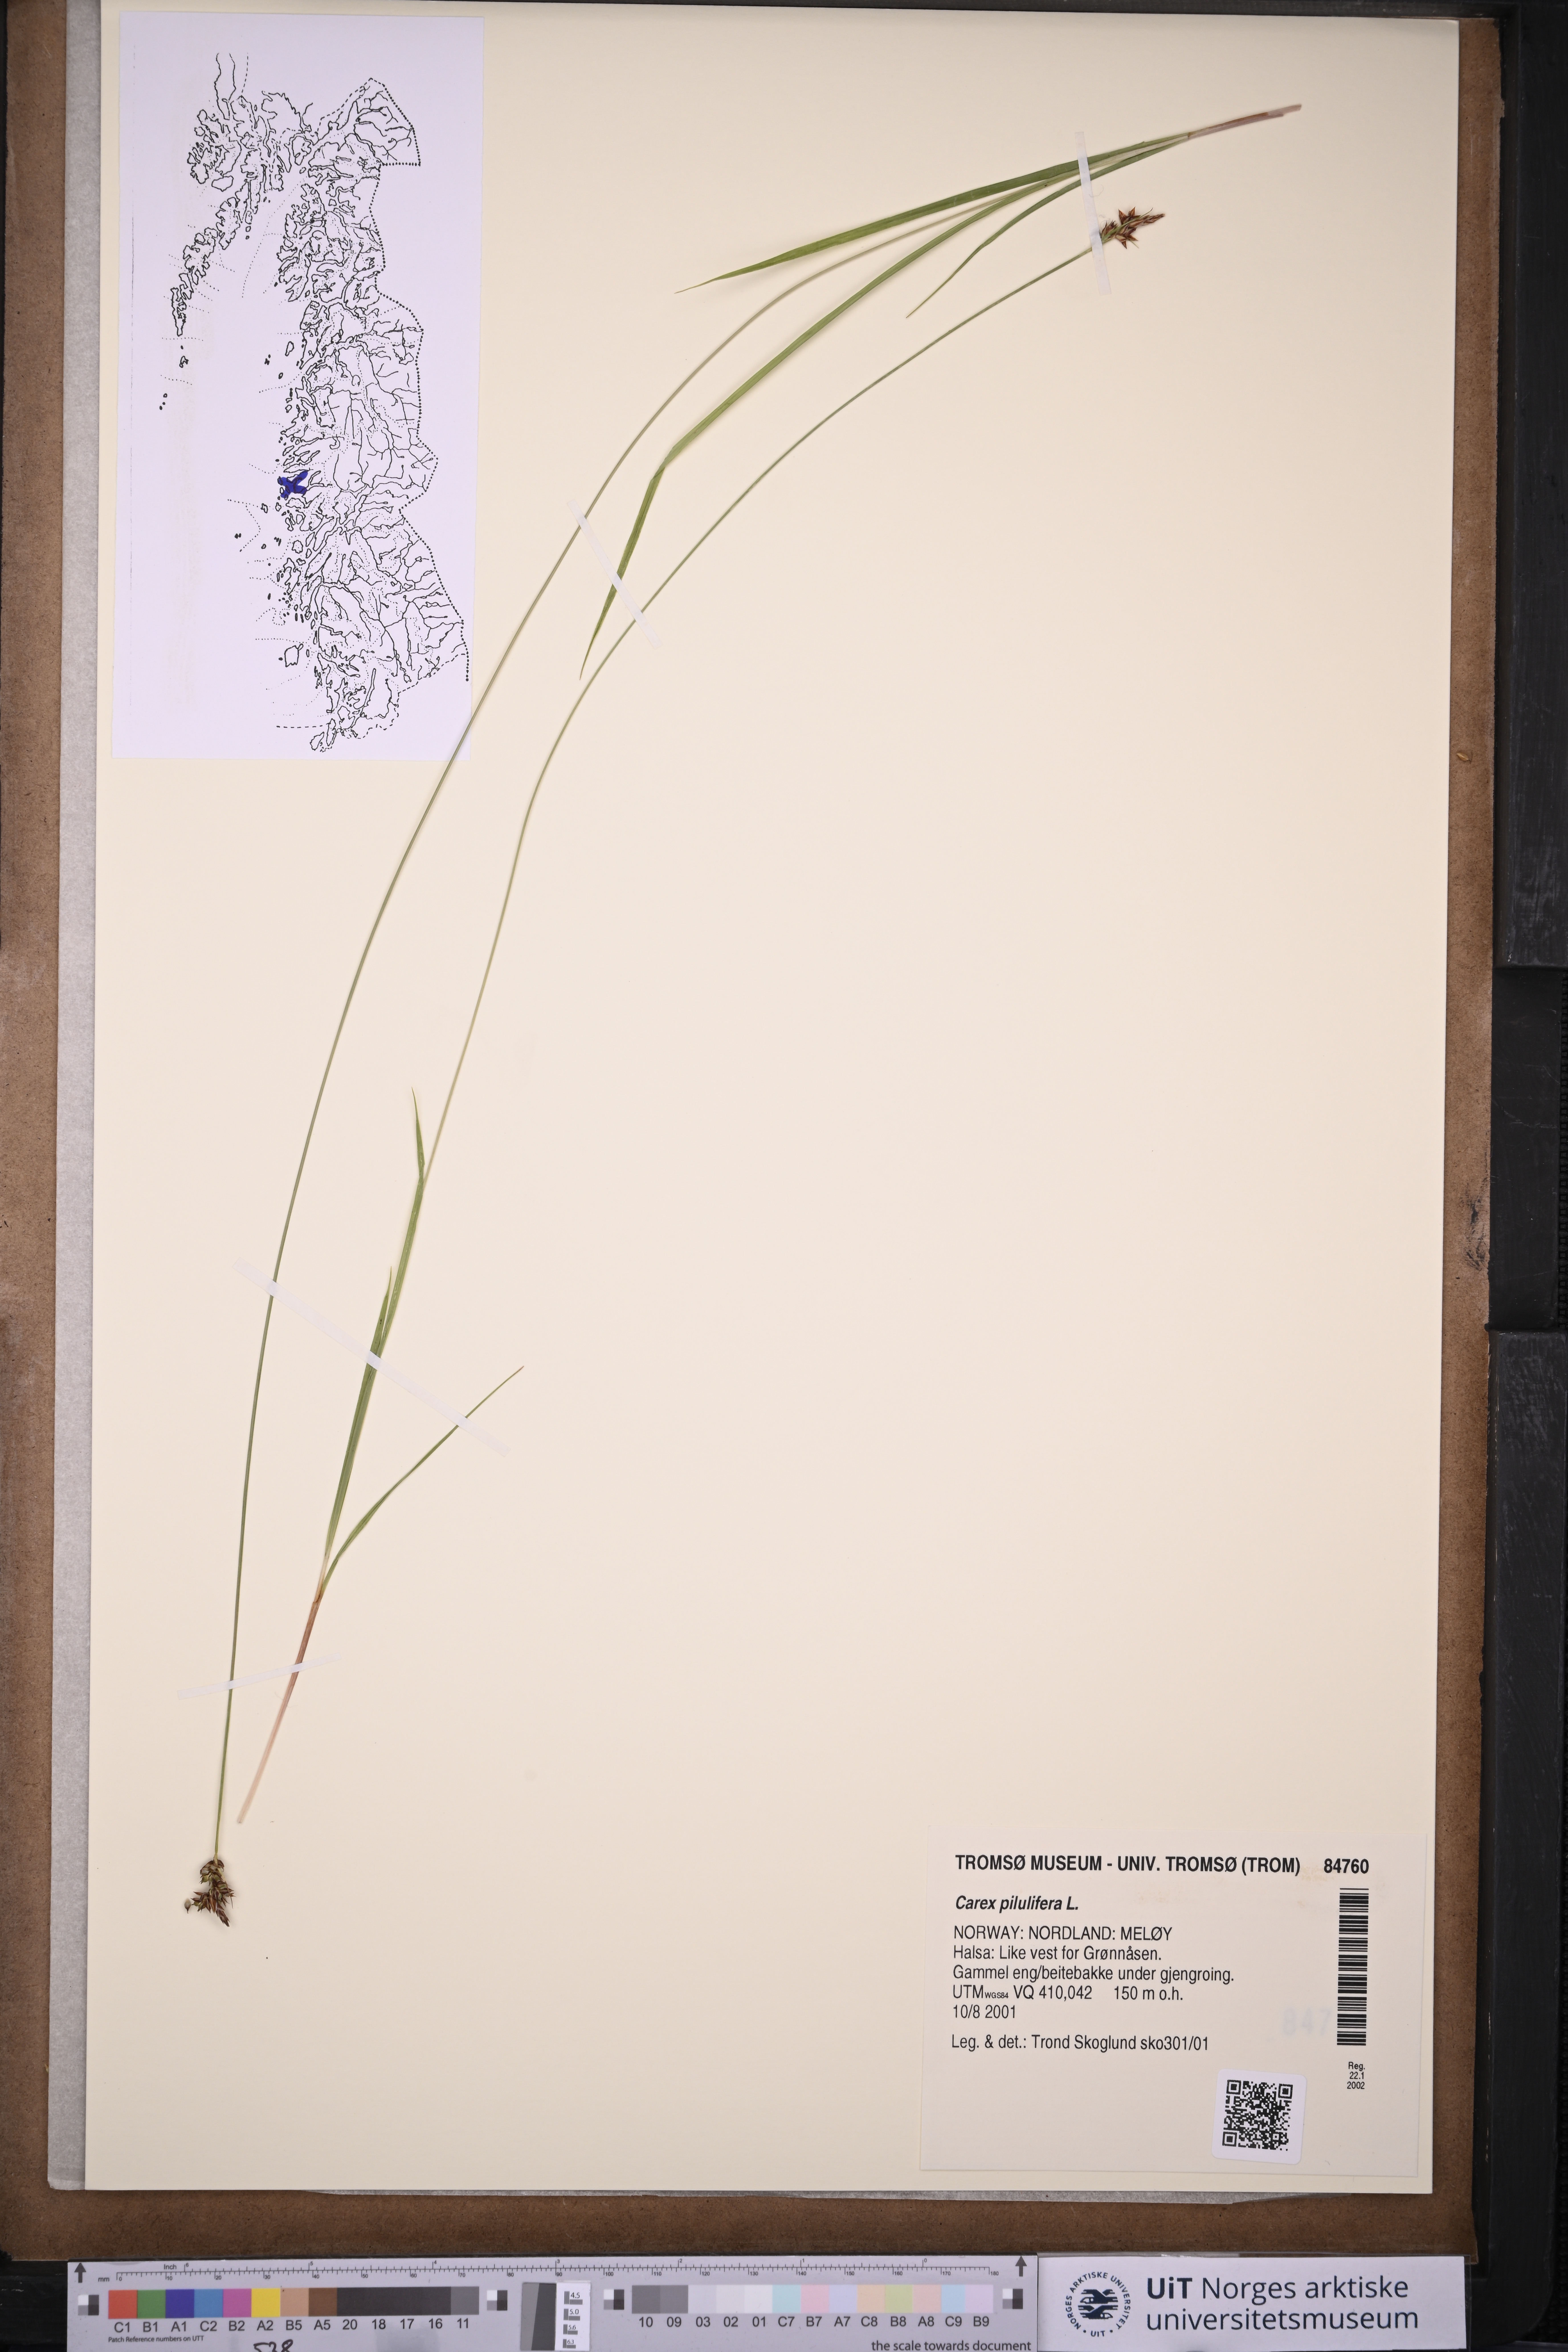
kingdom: Plantae
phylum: Tracheophyta
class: Liliopsida
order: Poales
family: Cyperaceae
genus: Carex
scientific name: Carex pilulifera
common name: Pill sedge
